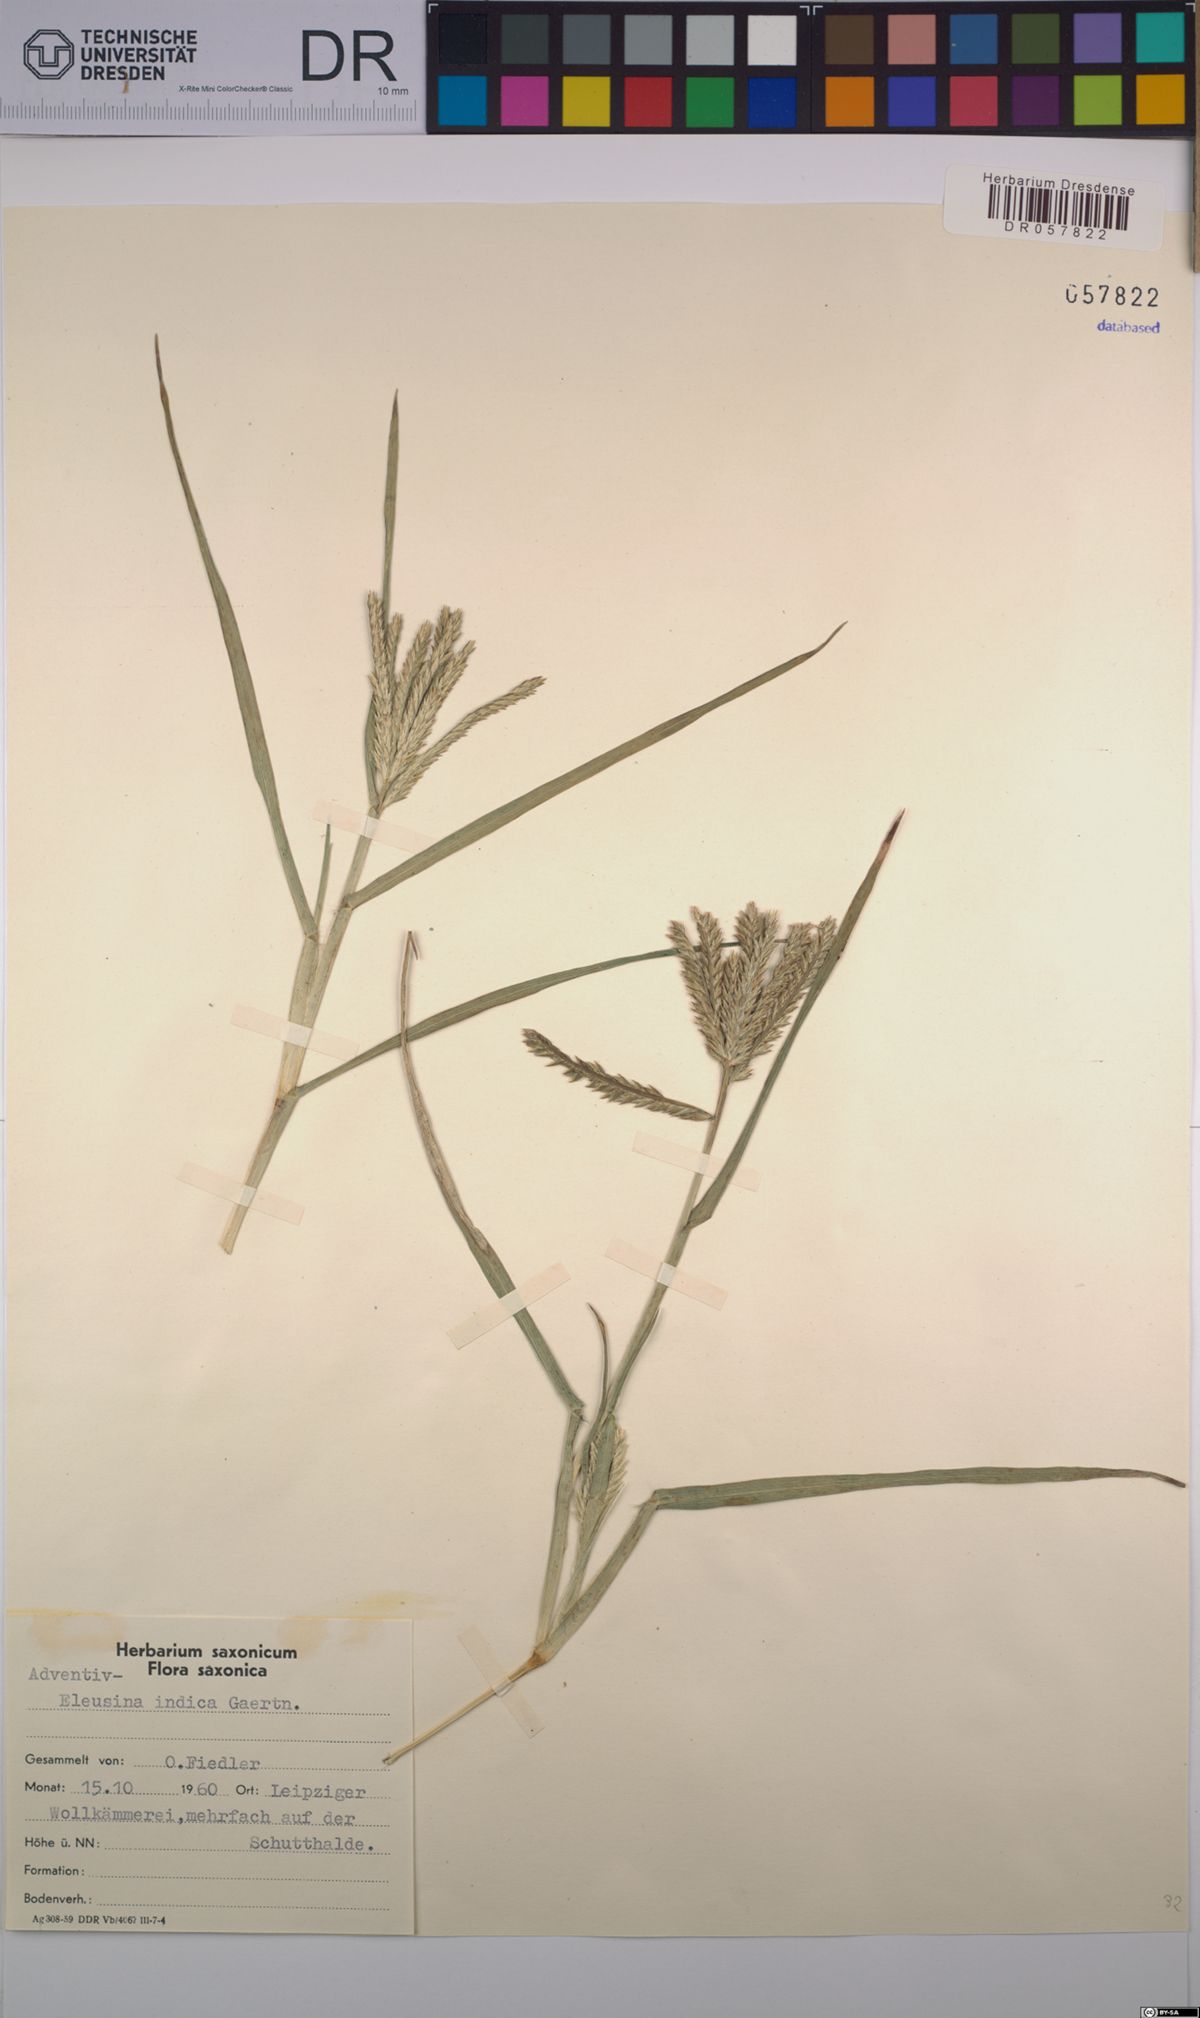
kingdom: Plantae
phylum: Tracheophyta
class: Liliopsida
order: Poales
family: Poaceae
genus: Eleusine
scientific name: Eleusine indica
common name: Yard-grass
